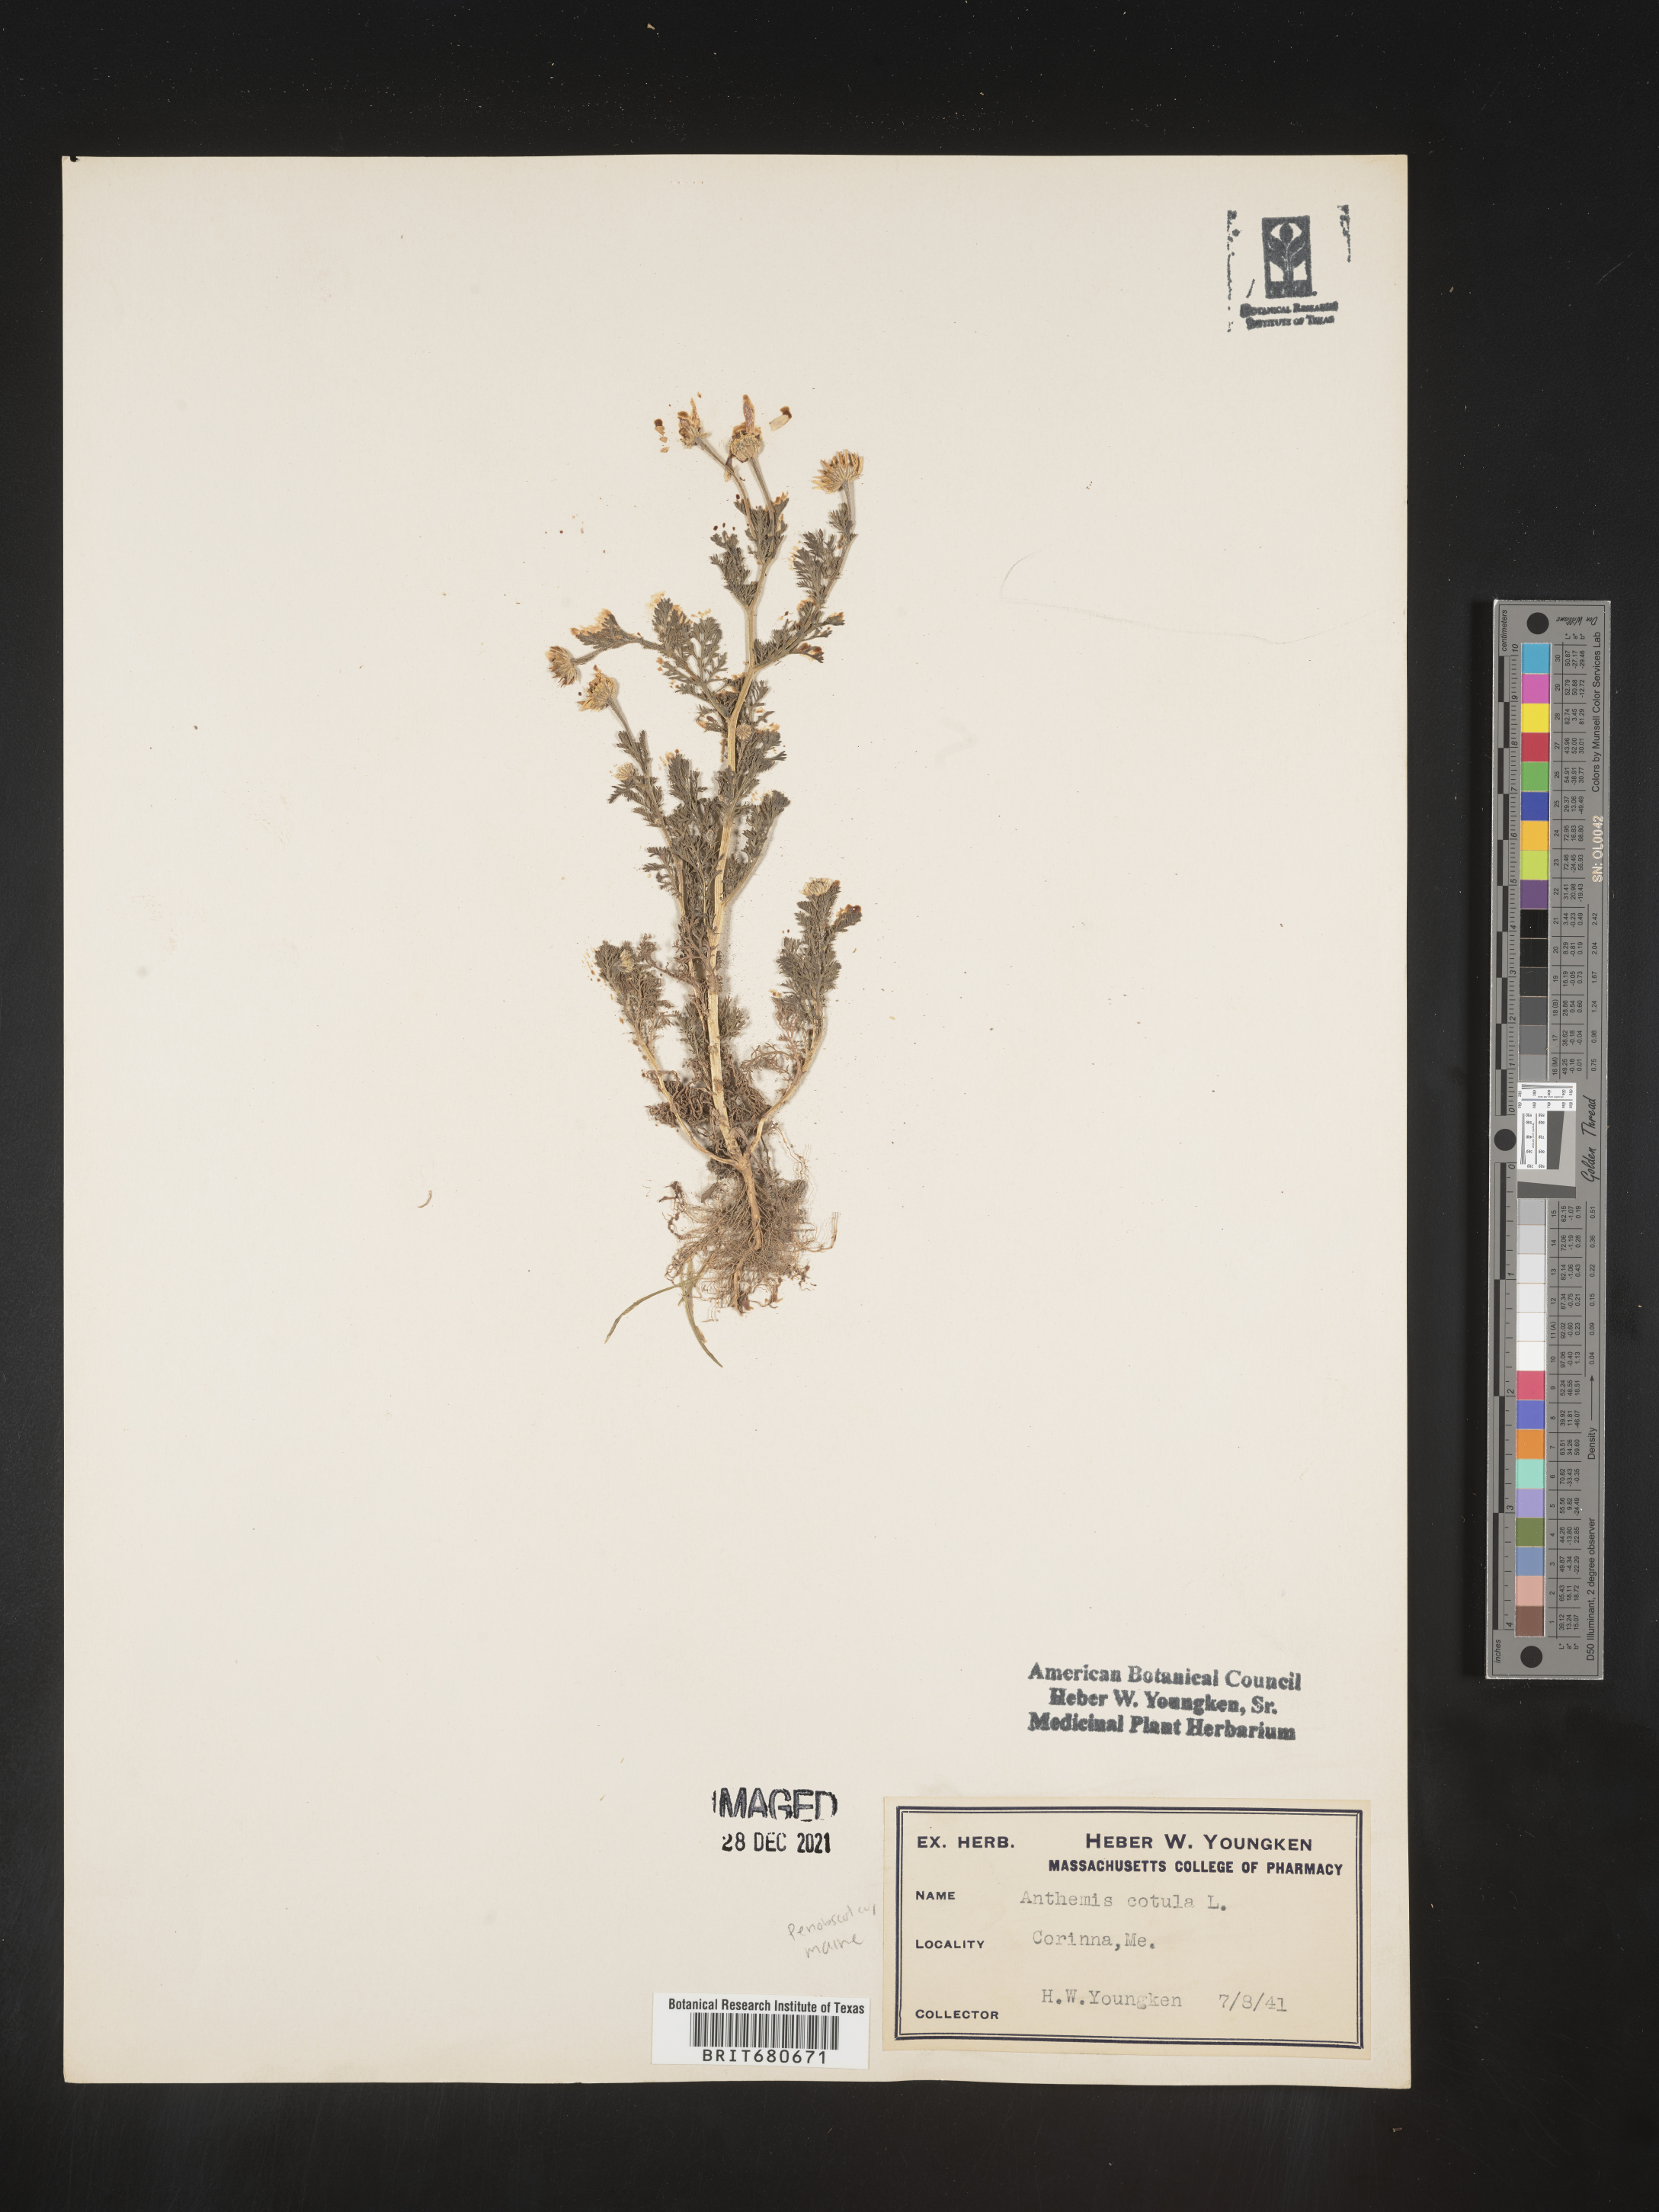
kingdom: Plantae
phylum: Tracheophyta
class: Magnoliopsida
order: Asterales
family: Asteraceae
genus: Anthemis
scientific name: Anthemis cotula
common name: Stinking chamomile
